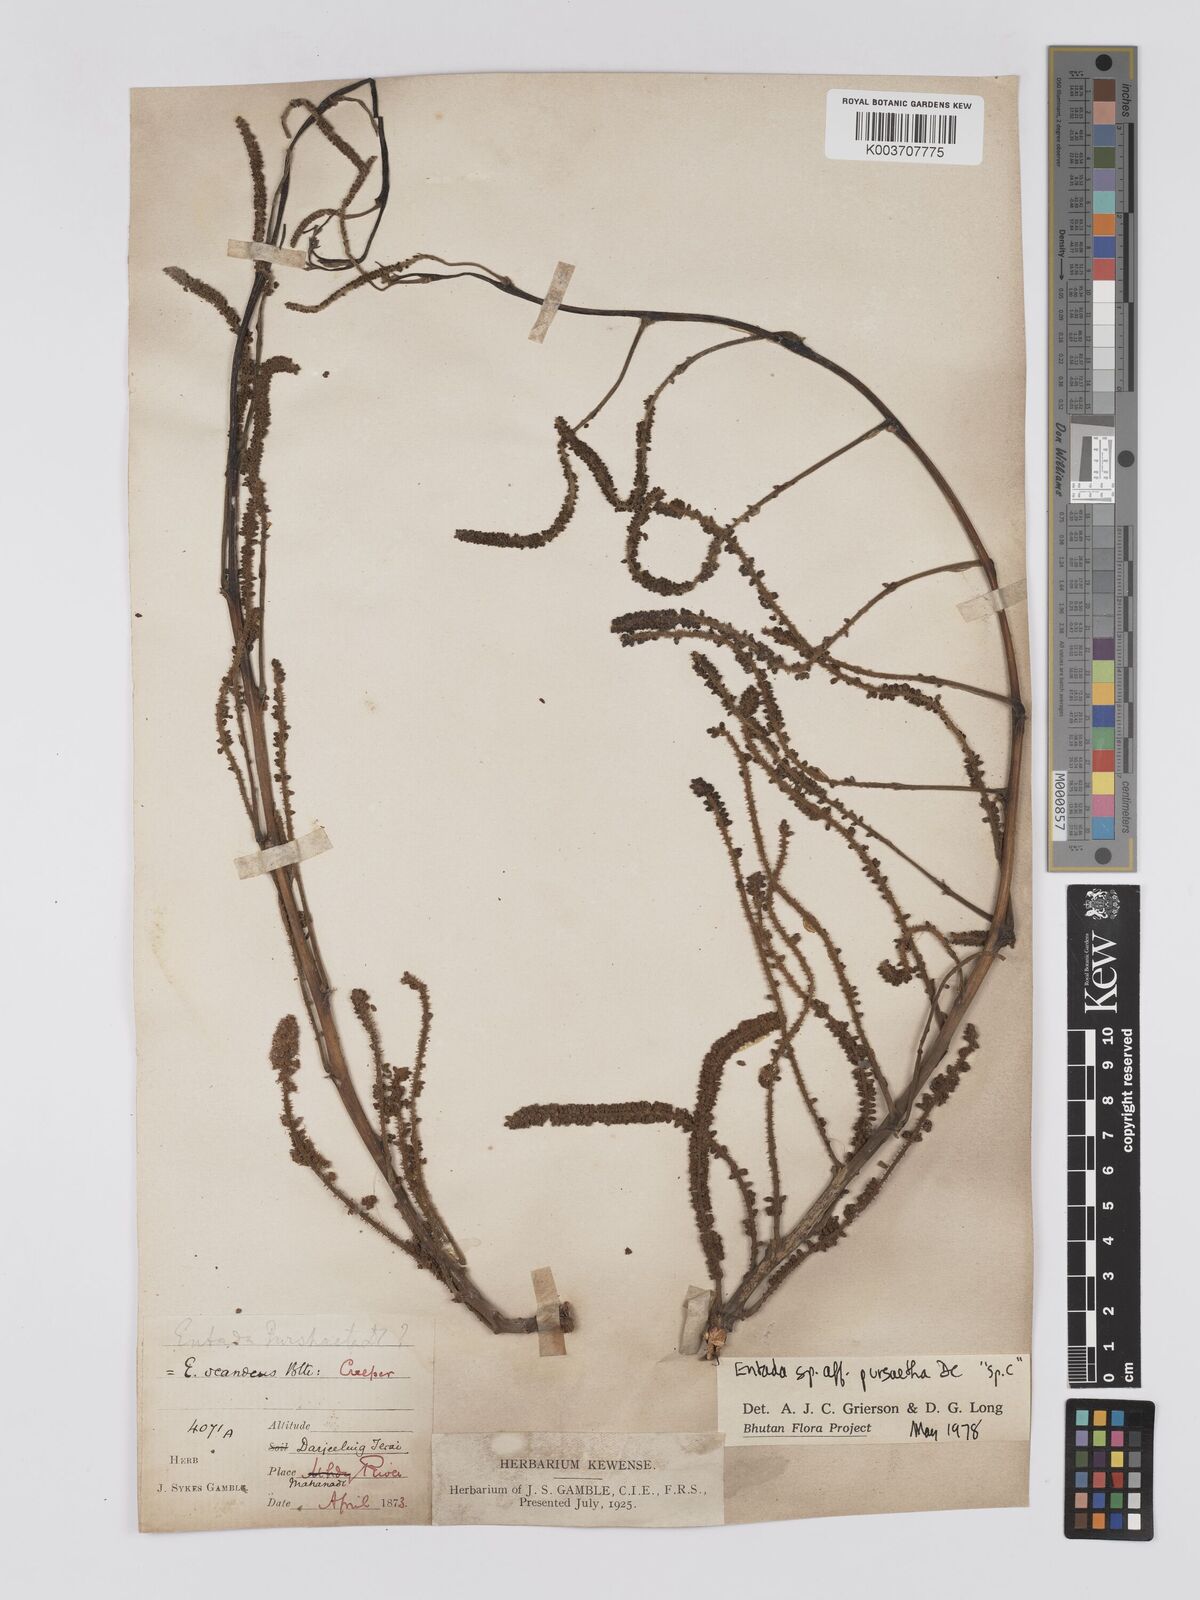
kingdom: Plantae
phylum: Tracheophyta
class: Magnoliopsida
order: Fabales
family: Fabaceae
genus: Entada
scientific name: Entada
